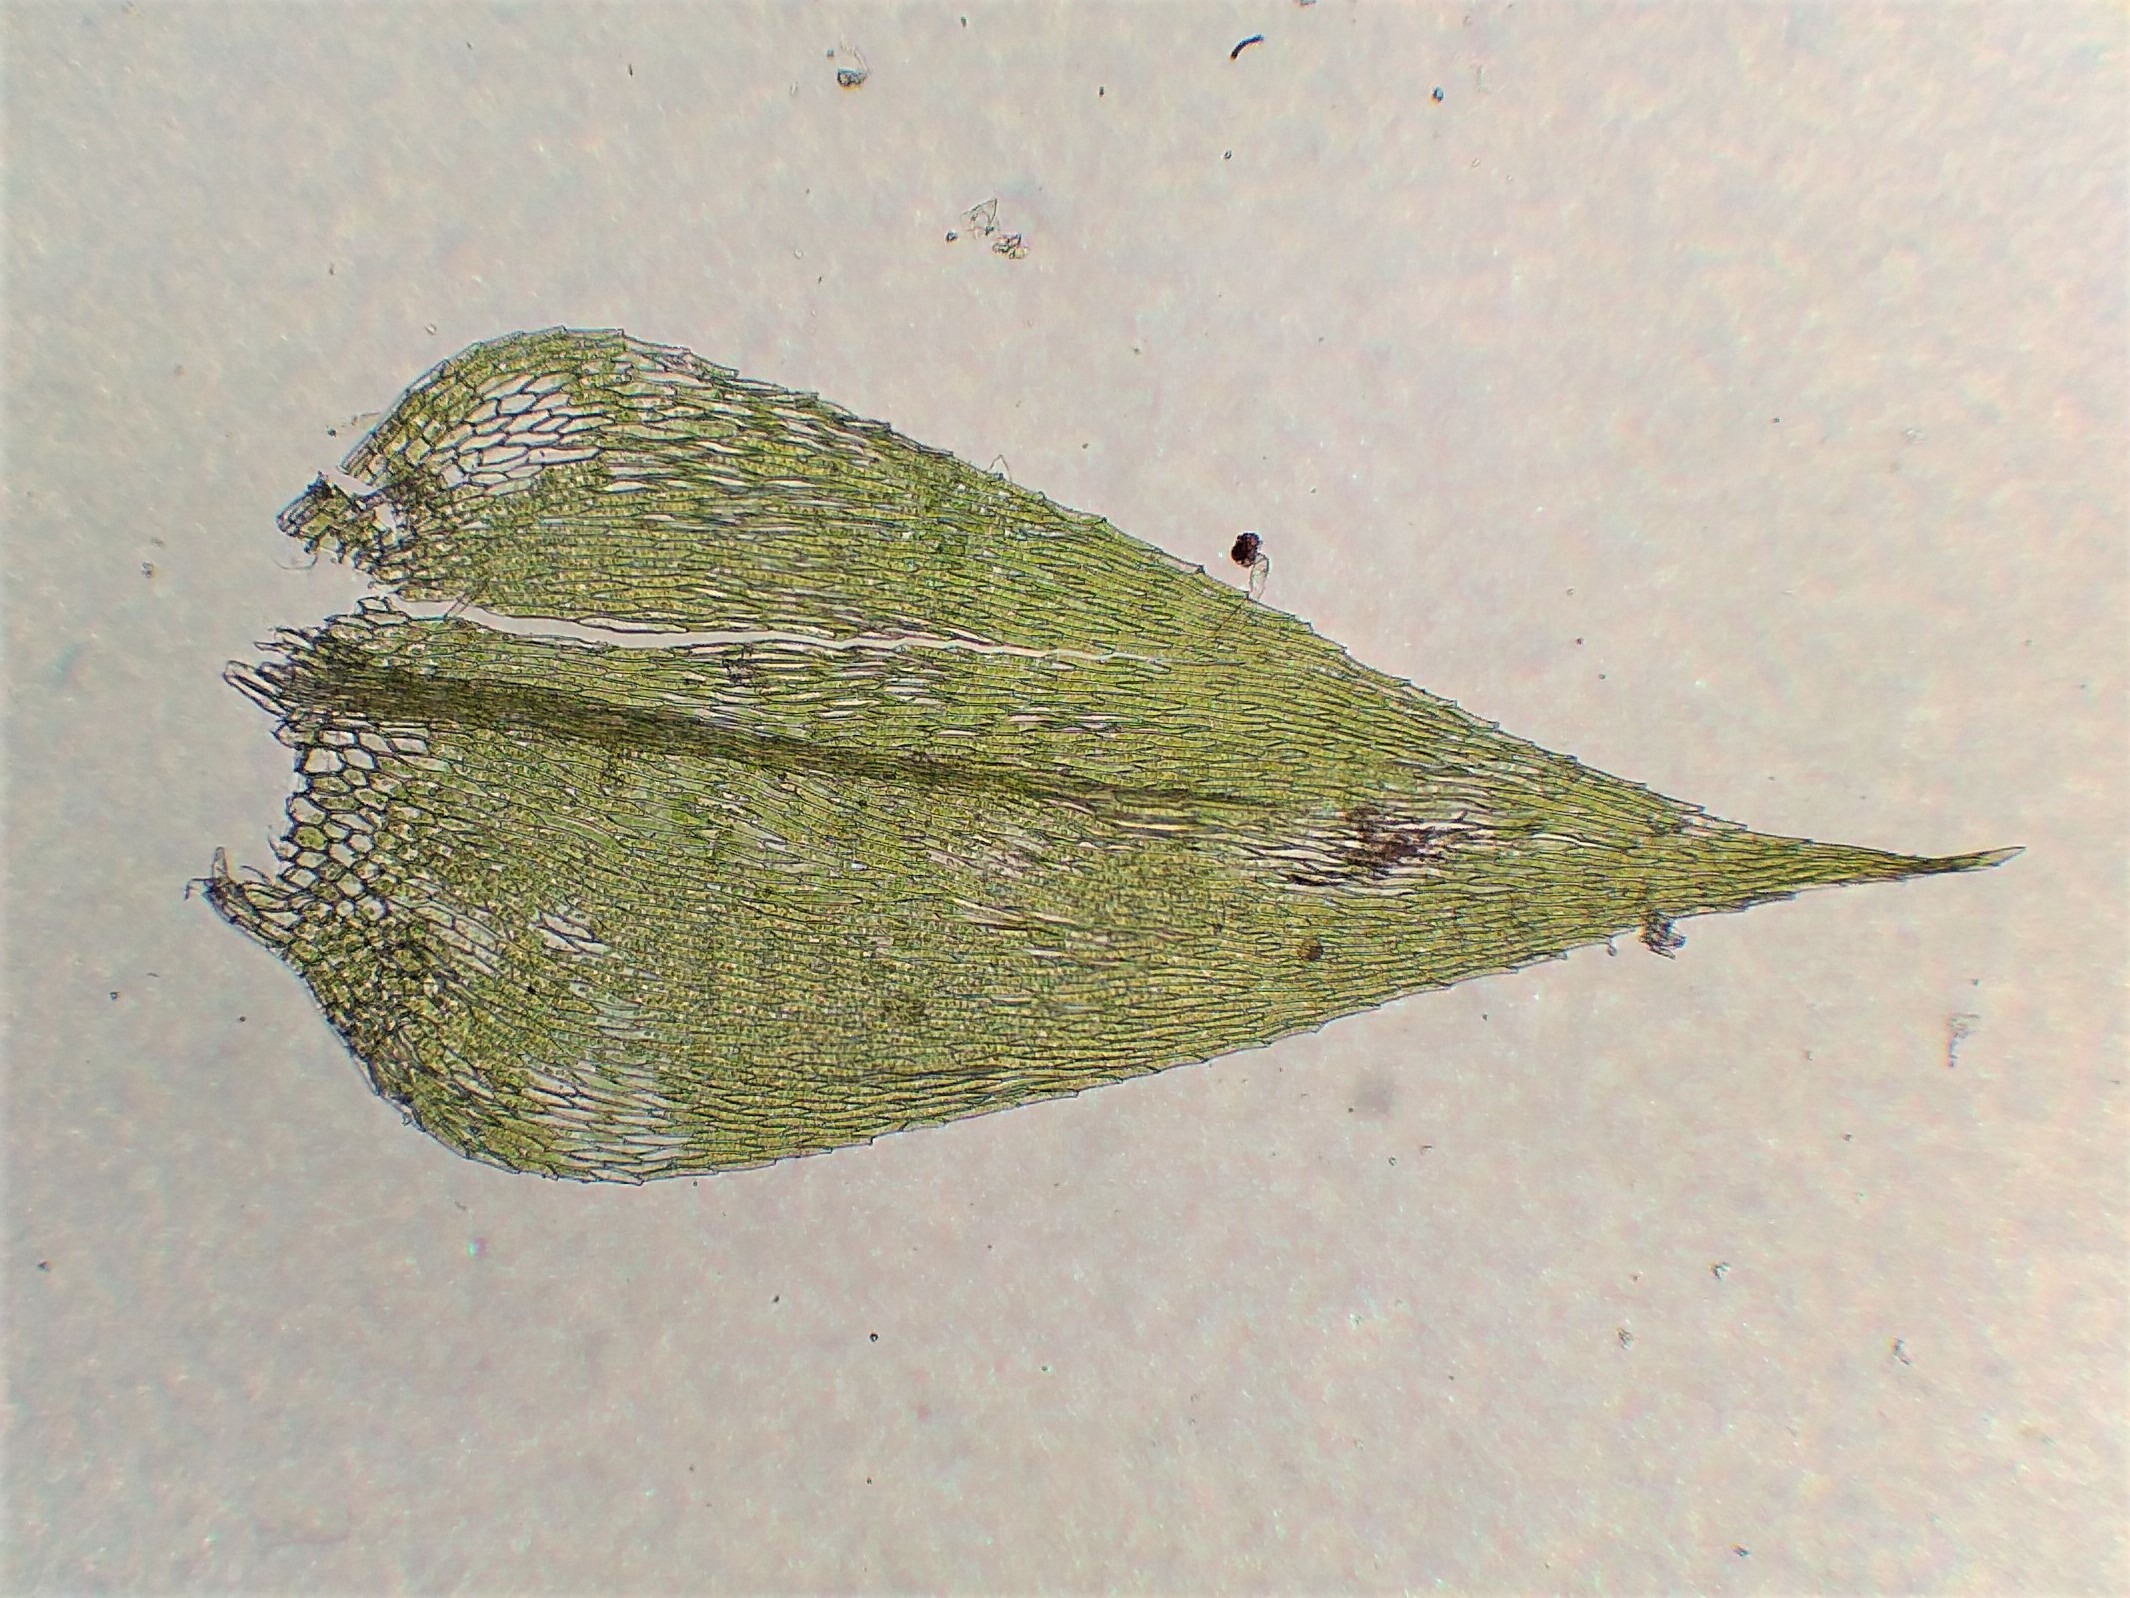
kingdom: Plantae
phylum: Bryophyta
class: Bryopsida
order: Hypnales
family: Brachytheciaceae
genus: Rhynchostegium
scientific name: Rhynchostegium megapolitanum
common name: Bredbladet langnæb
